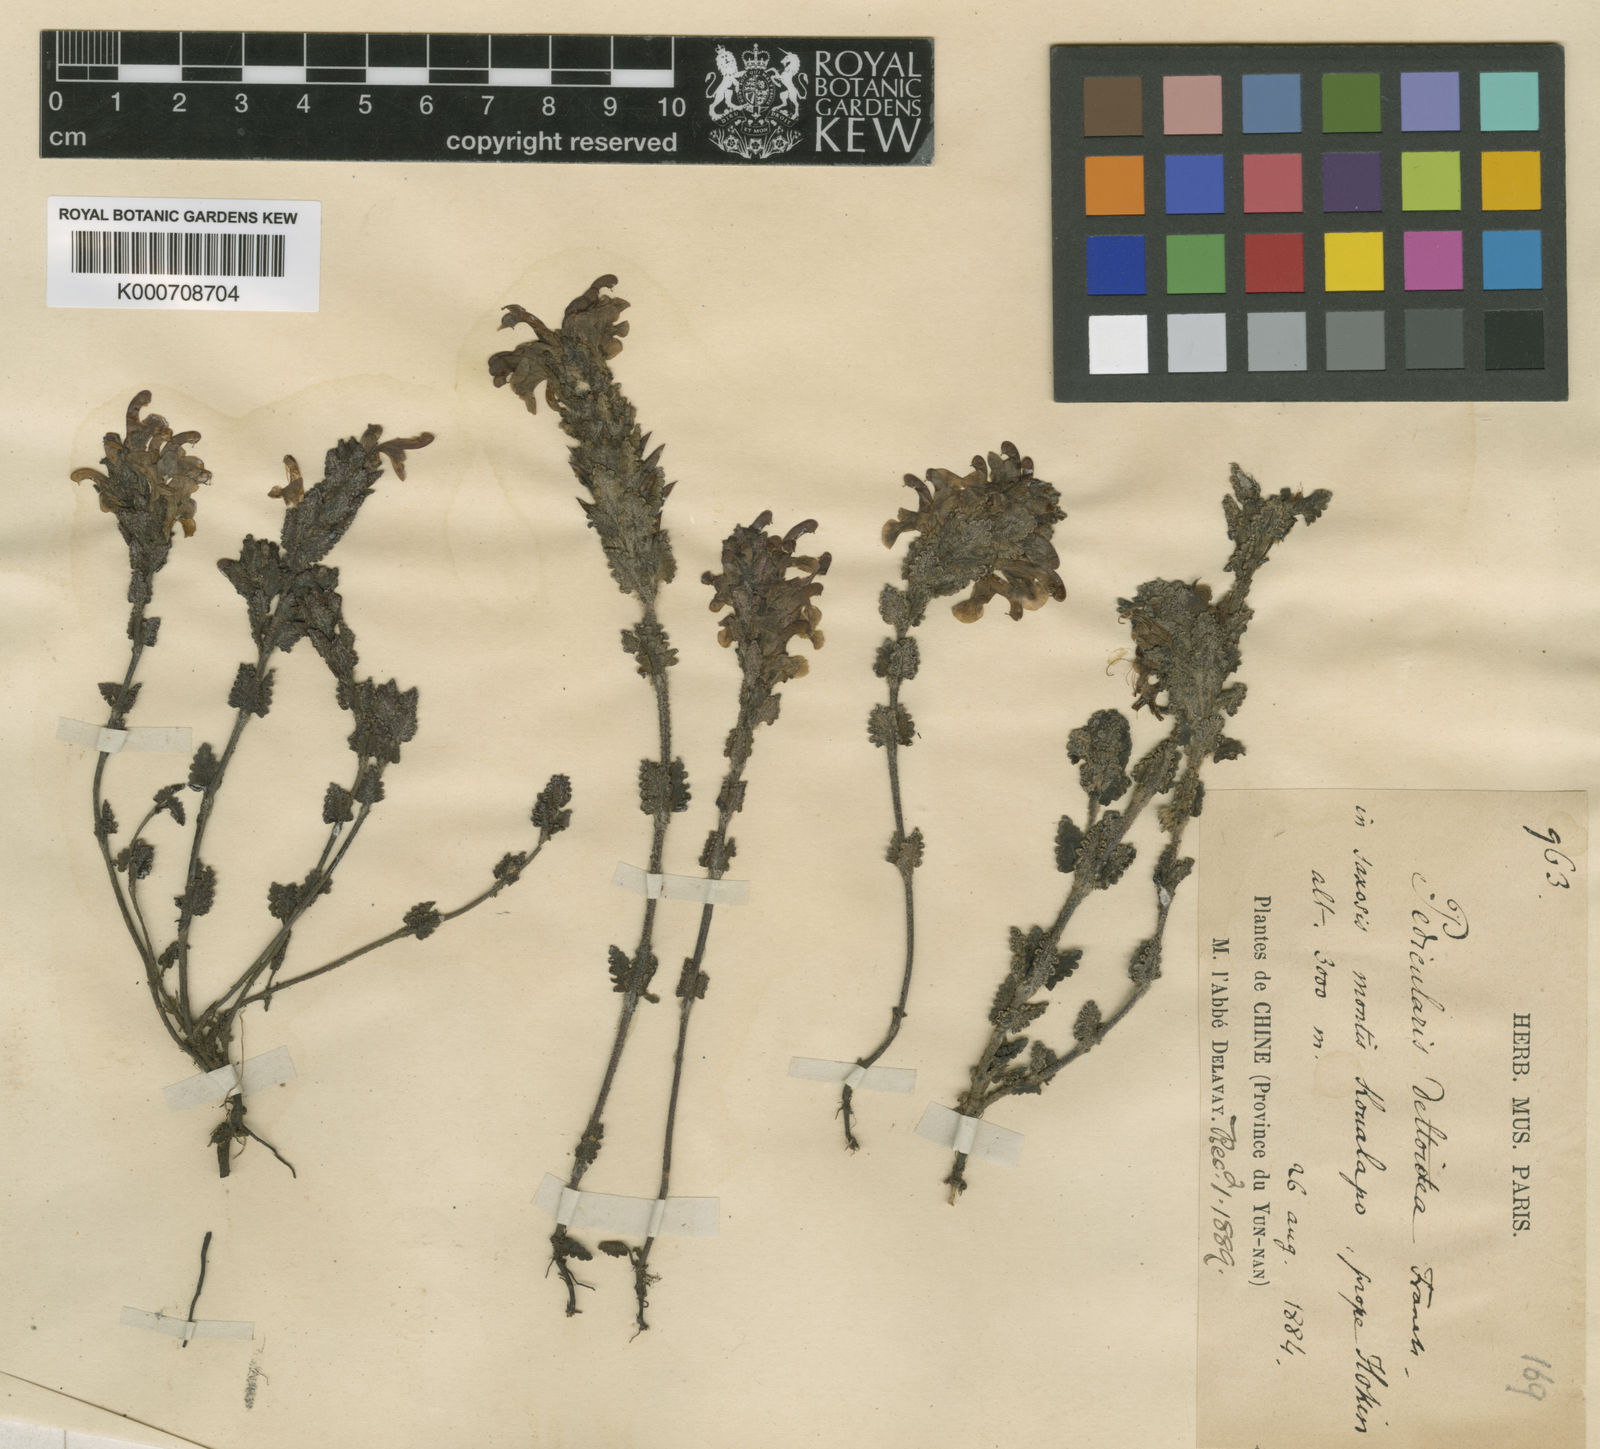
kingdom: Plantae
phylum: Tracheophyta
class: Magnoliopsida
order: Lamiales
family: Orobanchaceae
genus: Pedicularis
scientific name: Pedicularis deltoidea
